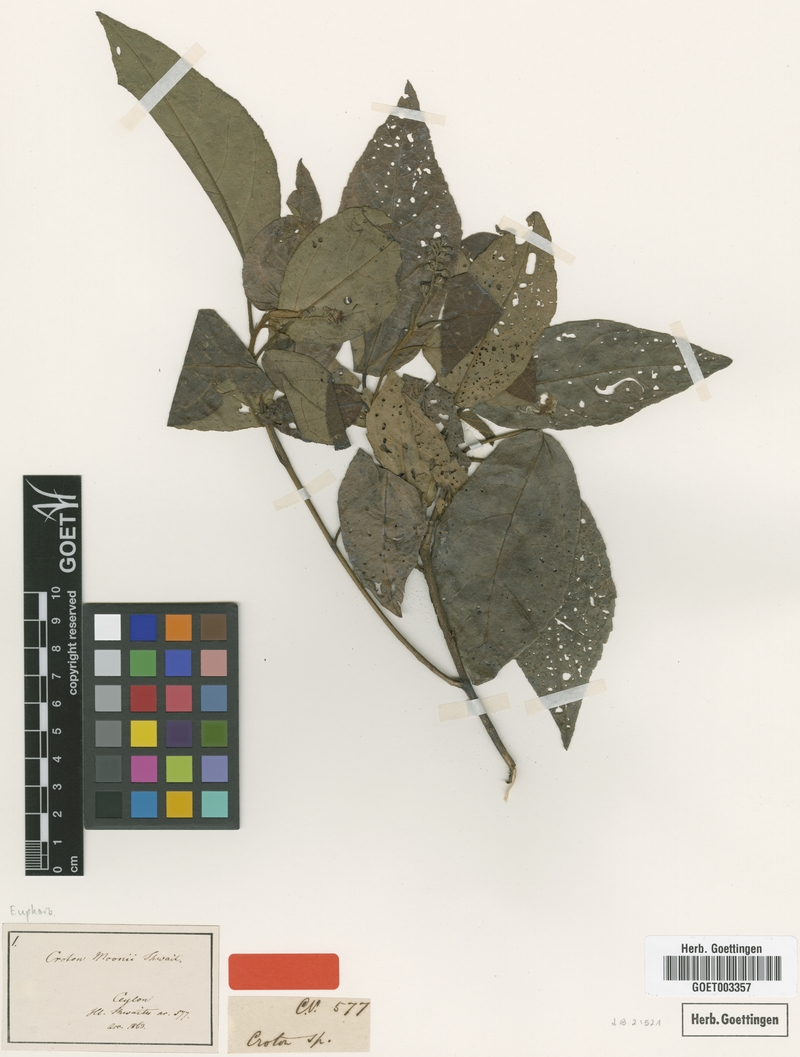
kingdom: Plantae
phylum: Tracheophyta
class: Magnoliopsida
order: Malpighiales
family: Euphorbiaceae
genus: Croton
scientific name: Croton moonii
